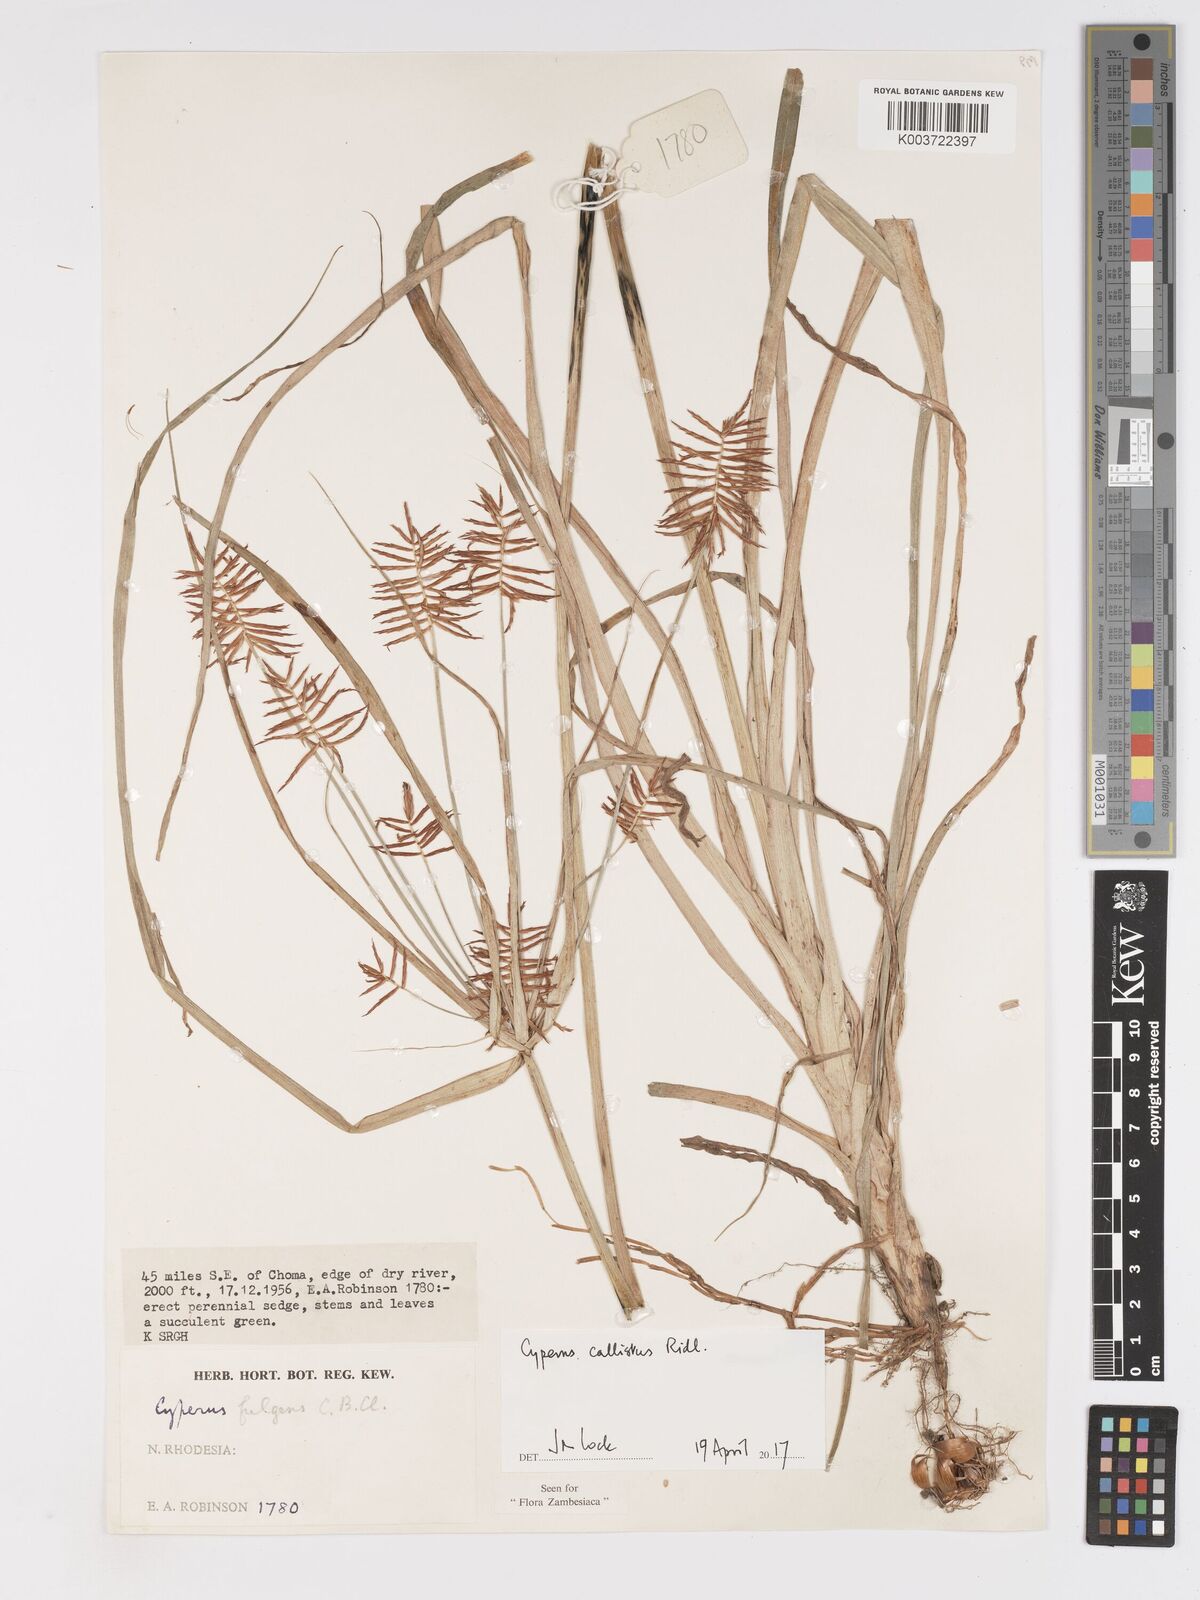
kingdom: Plantae
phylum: Tracheophyta
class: Liliopsida
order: Poales
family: Cyperaceae
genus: Cyperus
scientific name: Cyperus callistus
